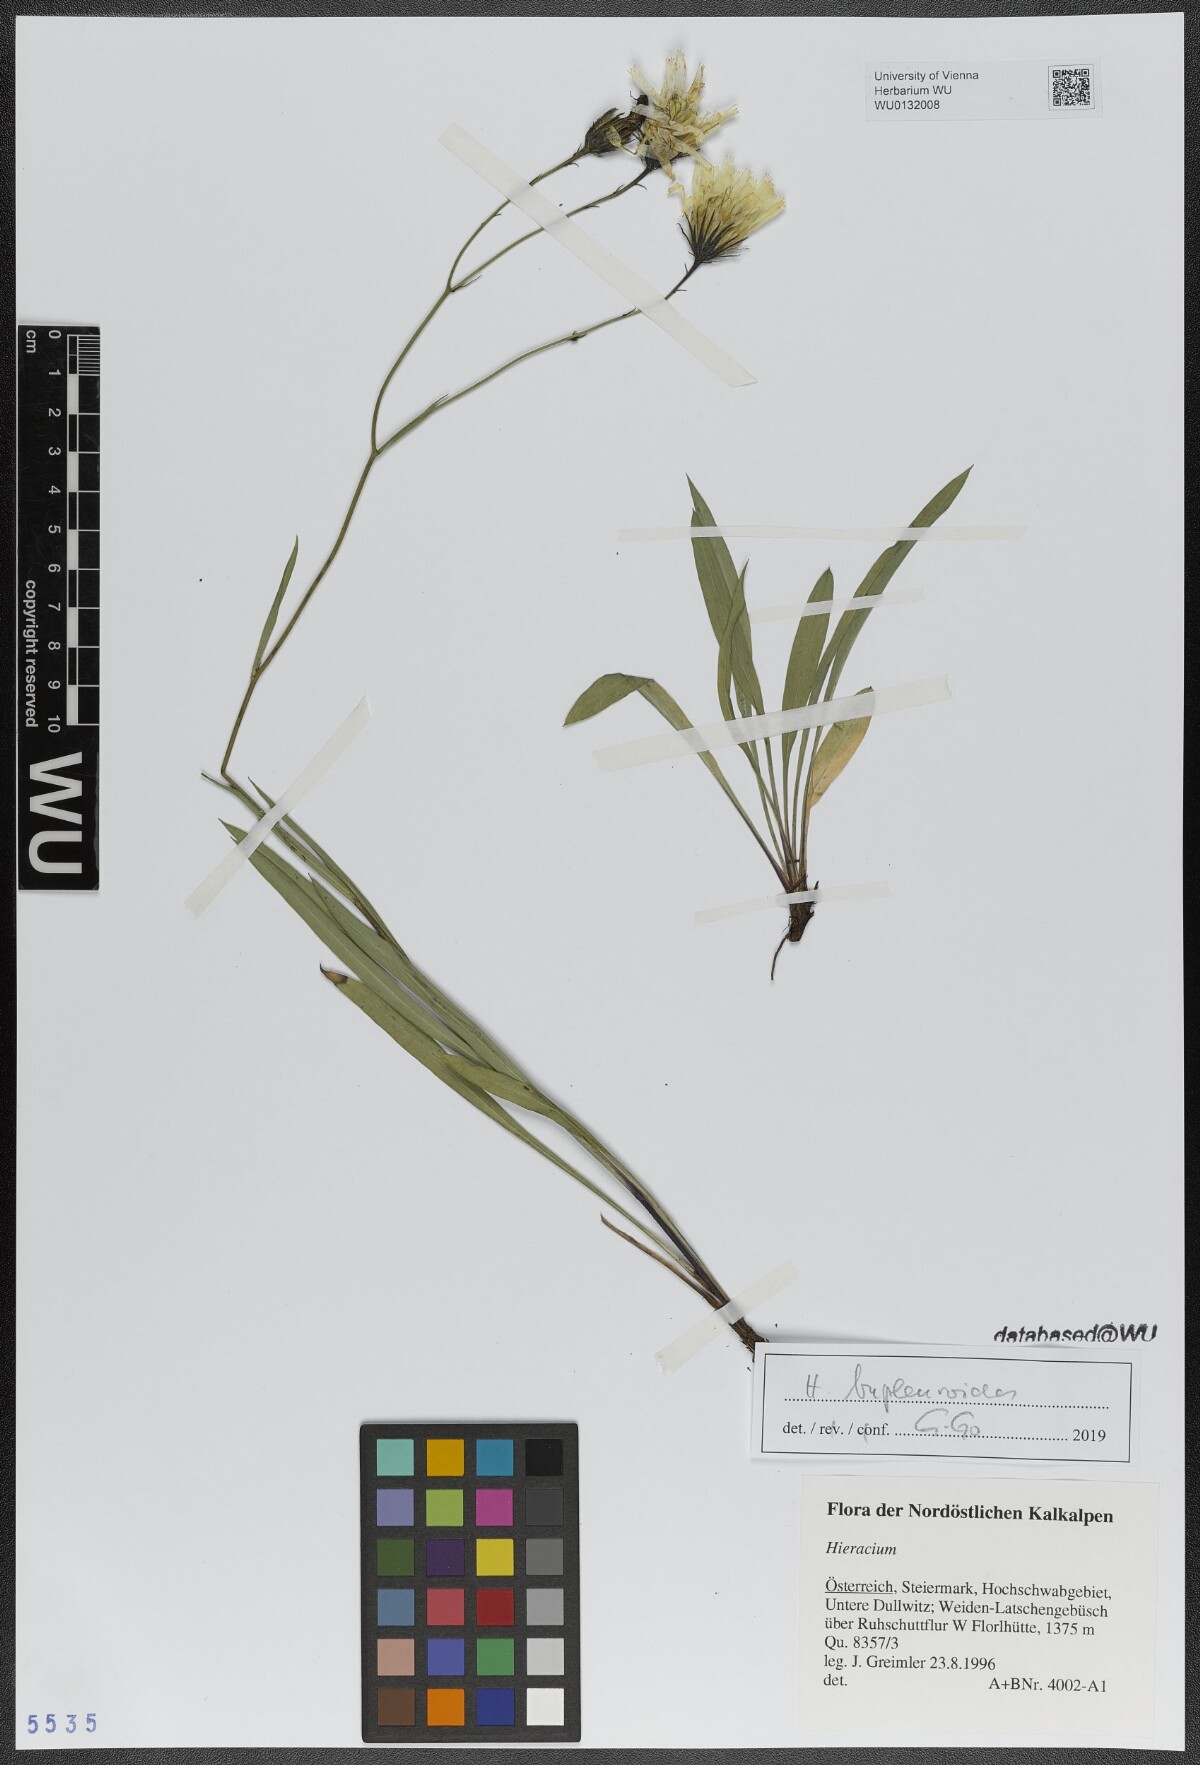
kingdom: Plantae
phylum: Tracheophyta
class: Magnoliopsida
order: Asterales
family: Asteraceae
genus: Hieracium
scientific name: Hieracium bupleuroides
